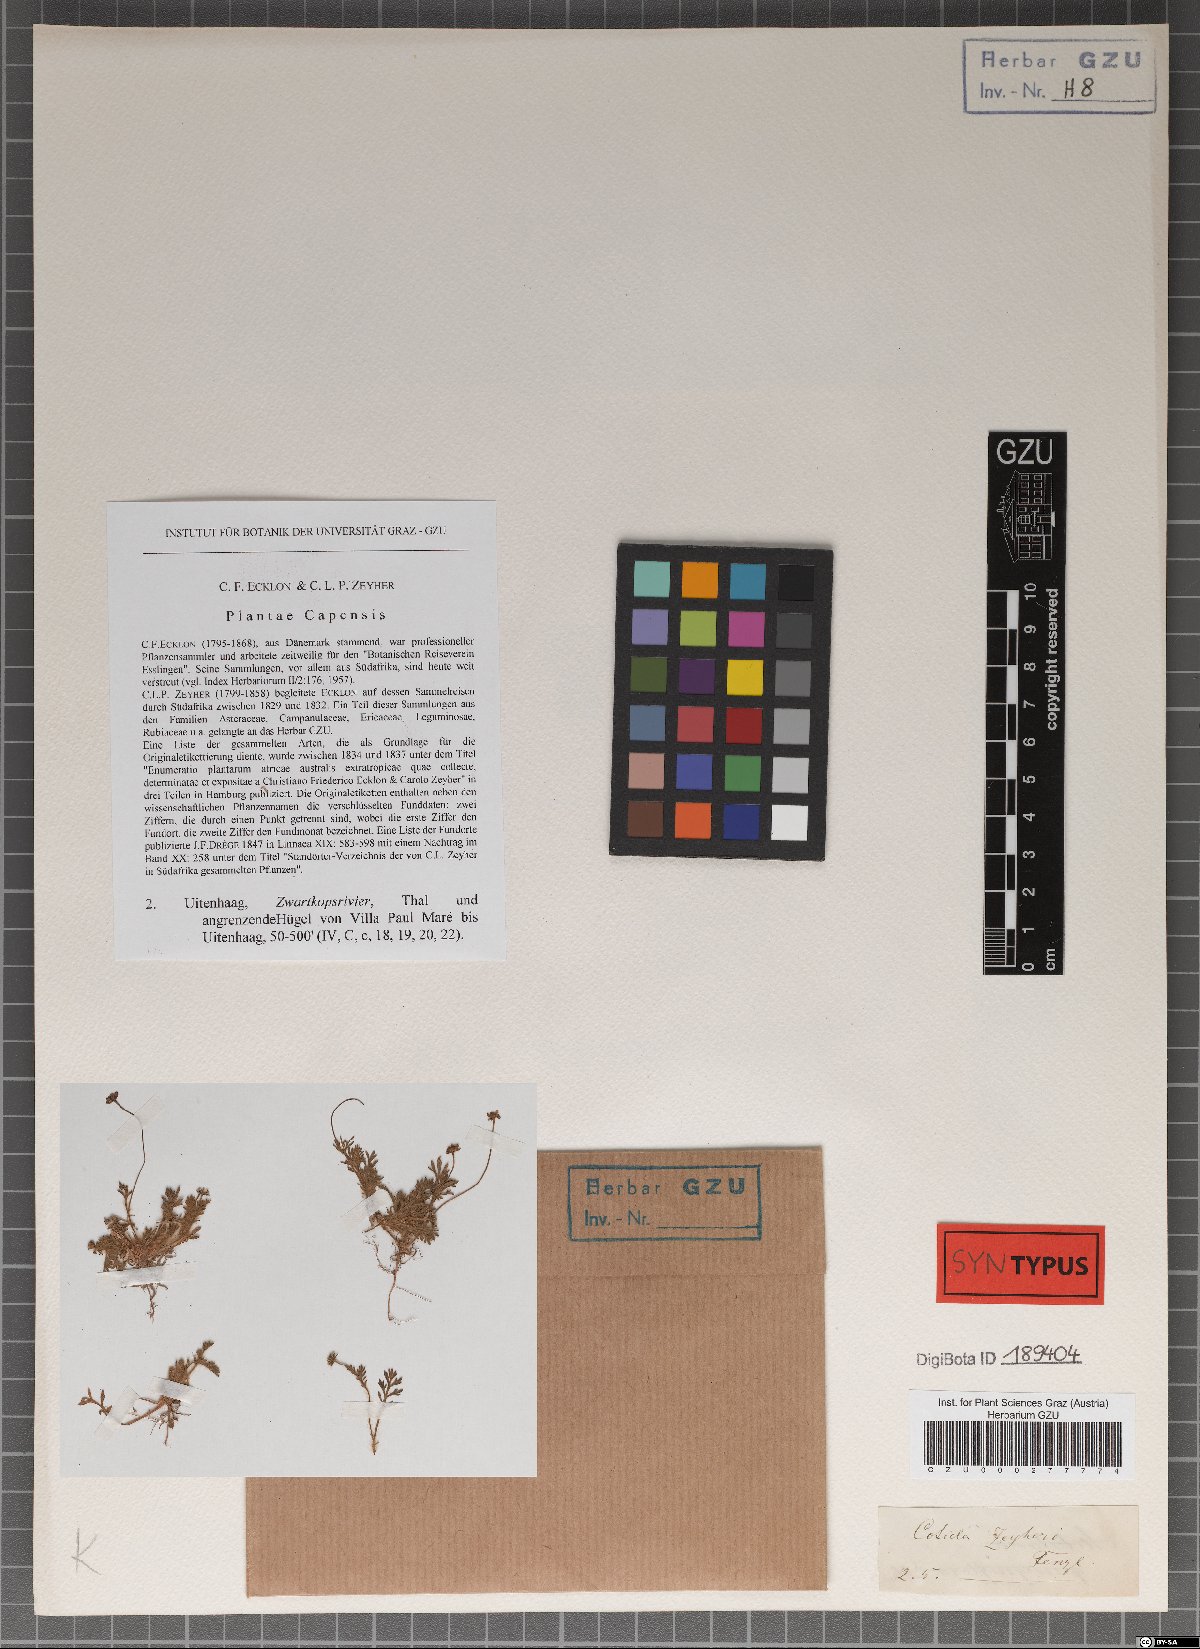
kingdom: Plantae
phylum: Tracheophyta
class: Magnoliopsida
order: Asterales
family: Asteraceae
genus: Cotula
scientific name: Cotula zeyheri
